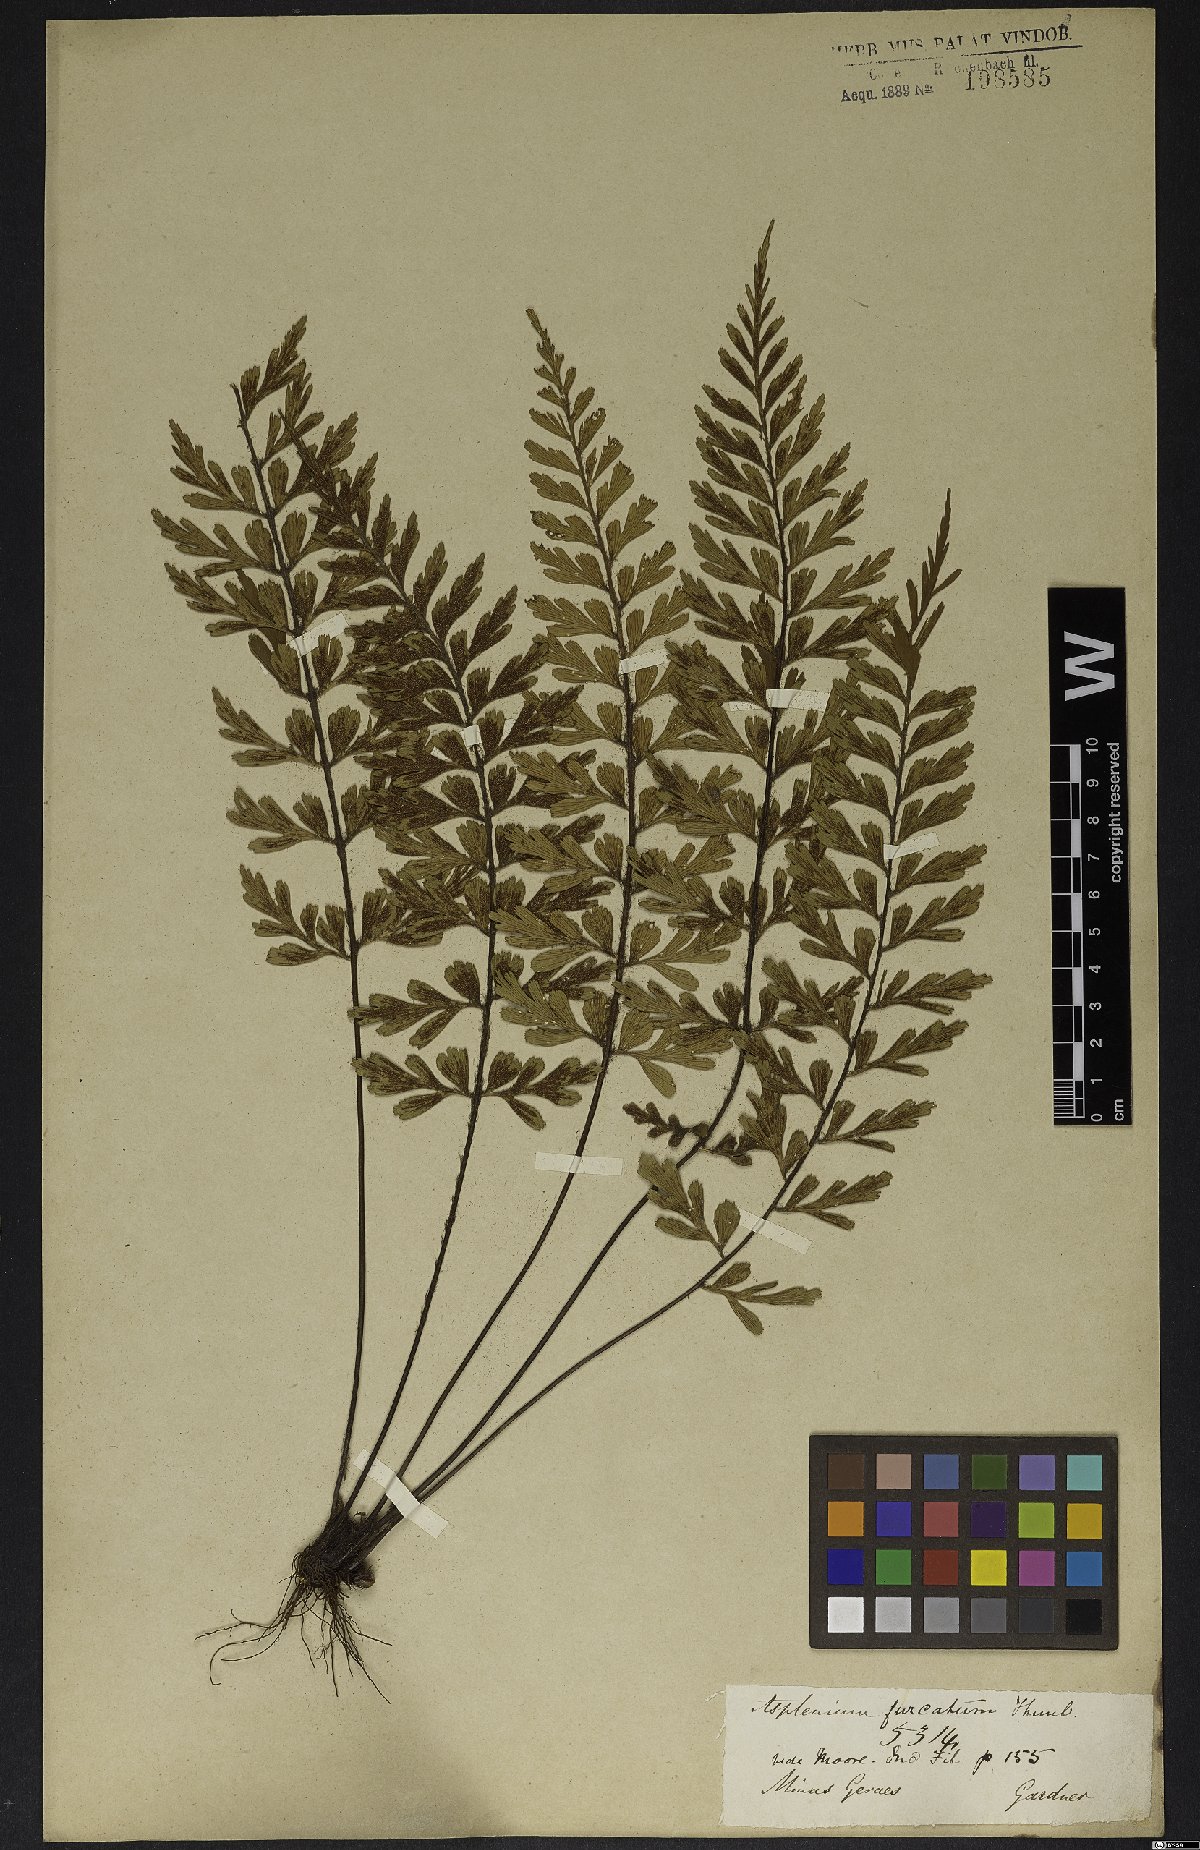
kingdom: Plantae
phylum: Tracheophyta
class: Polypodiopsida
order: Polypodiales
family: Aspleniaceae
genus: Asplenium
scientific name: Asplenium praemorsum
